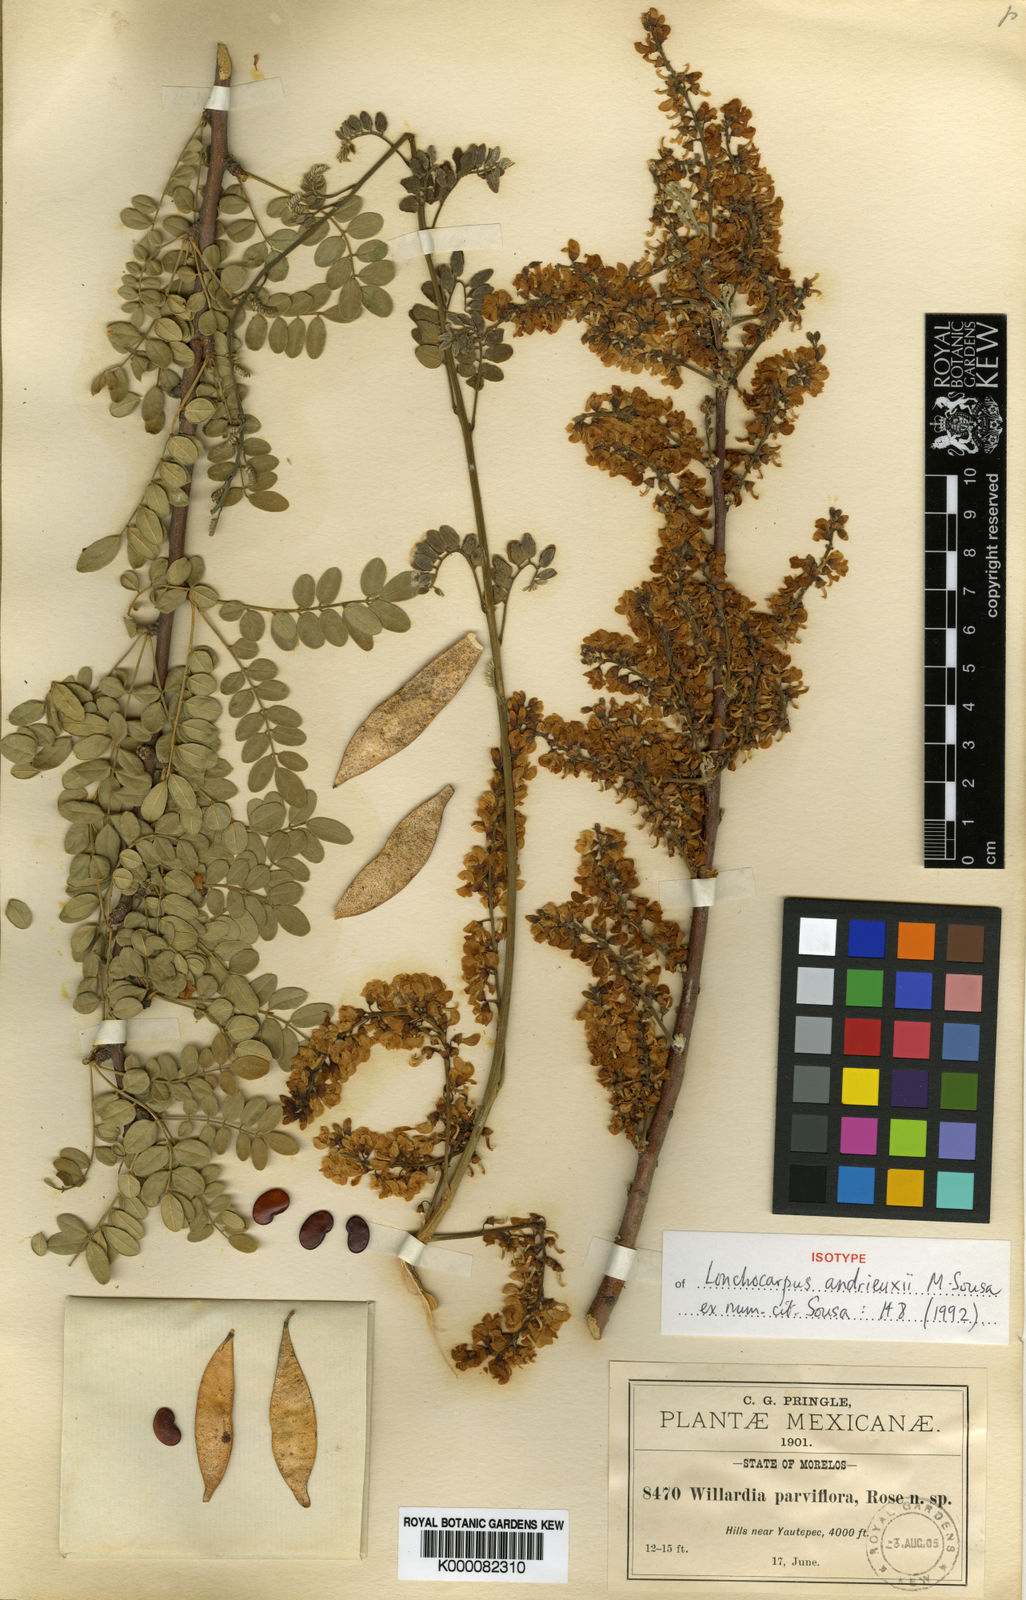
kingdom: Plantae
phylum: Tracheophyta
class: Magnoliopsida
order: Fabales
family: Fabaceae
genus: Lonchocarpus
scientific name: Lonchocarpus andrieuxii
